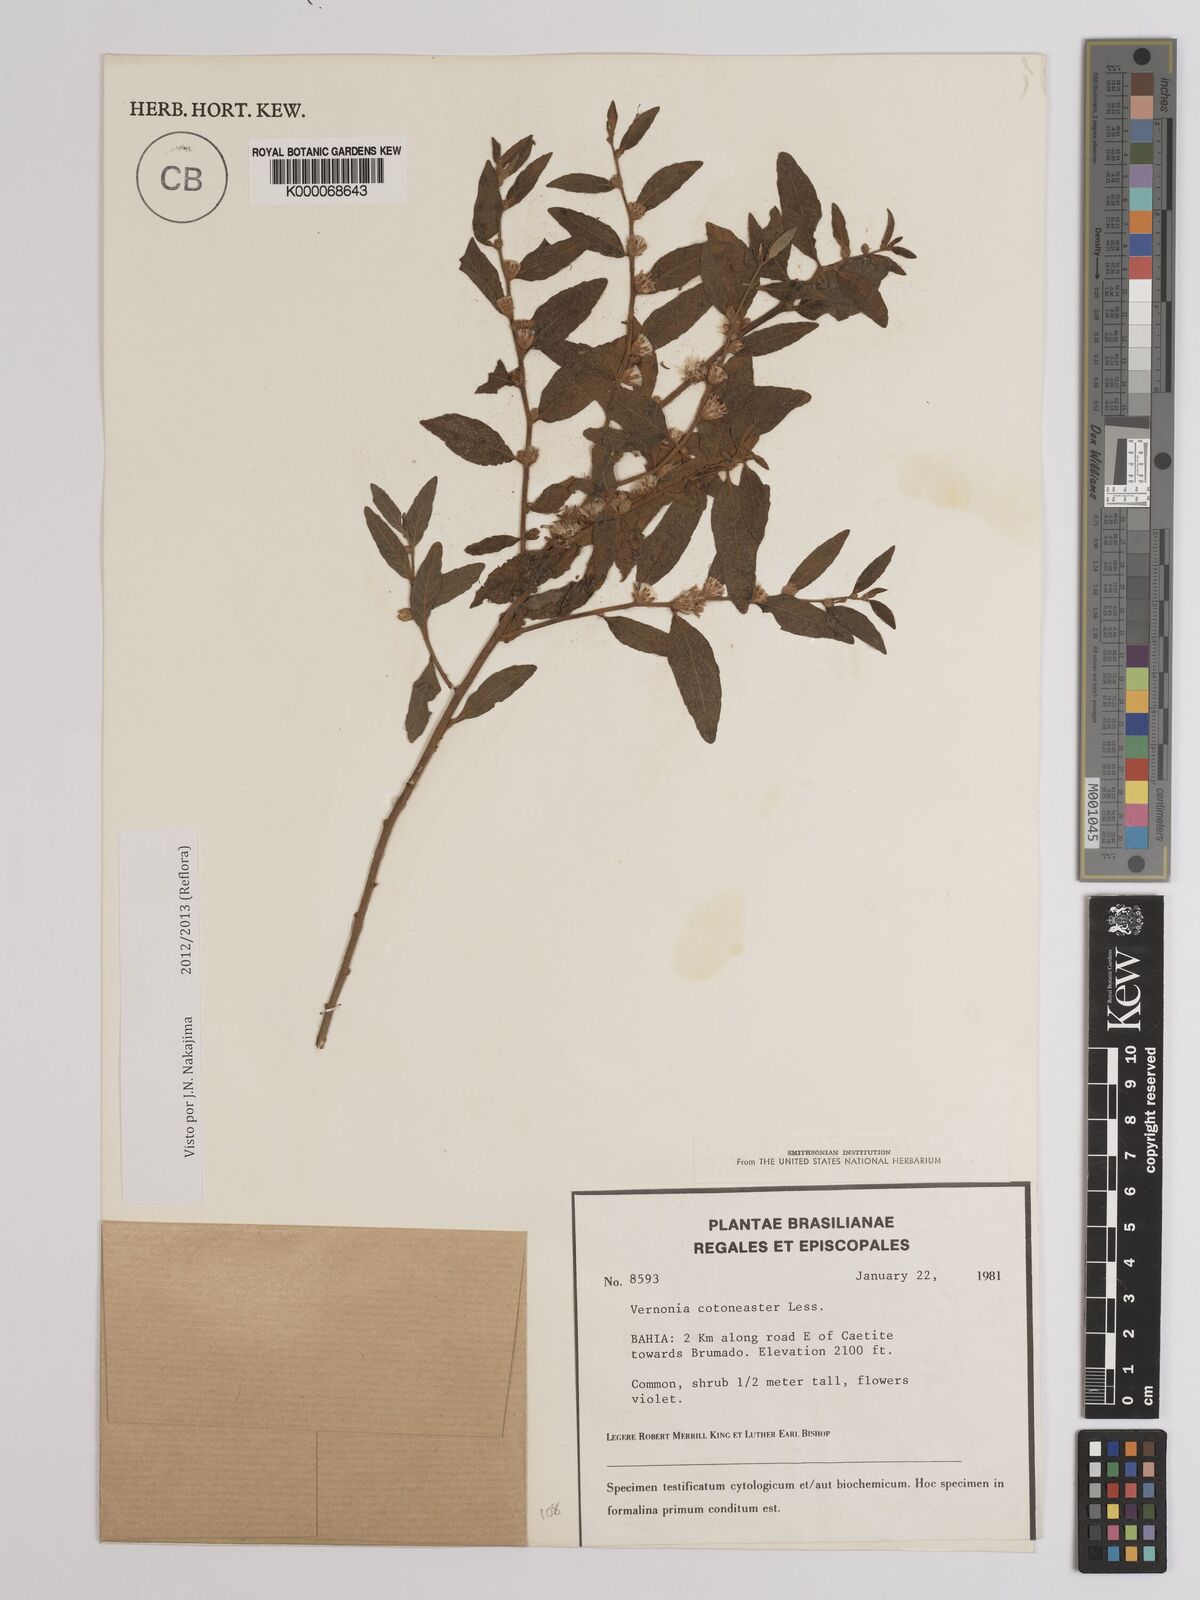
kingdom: Plantae
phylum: Tracheophyta
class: Magnoliopsida
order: Asterales
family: Asteraceae
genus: Lepidaploa
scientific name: Lepidaploa cotoneaster
